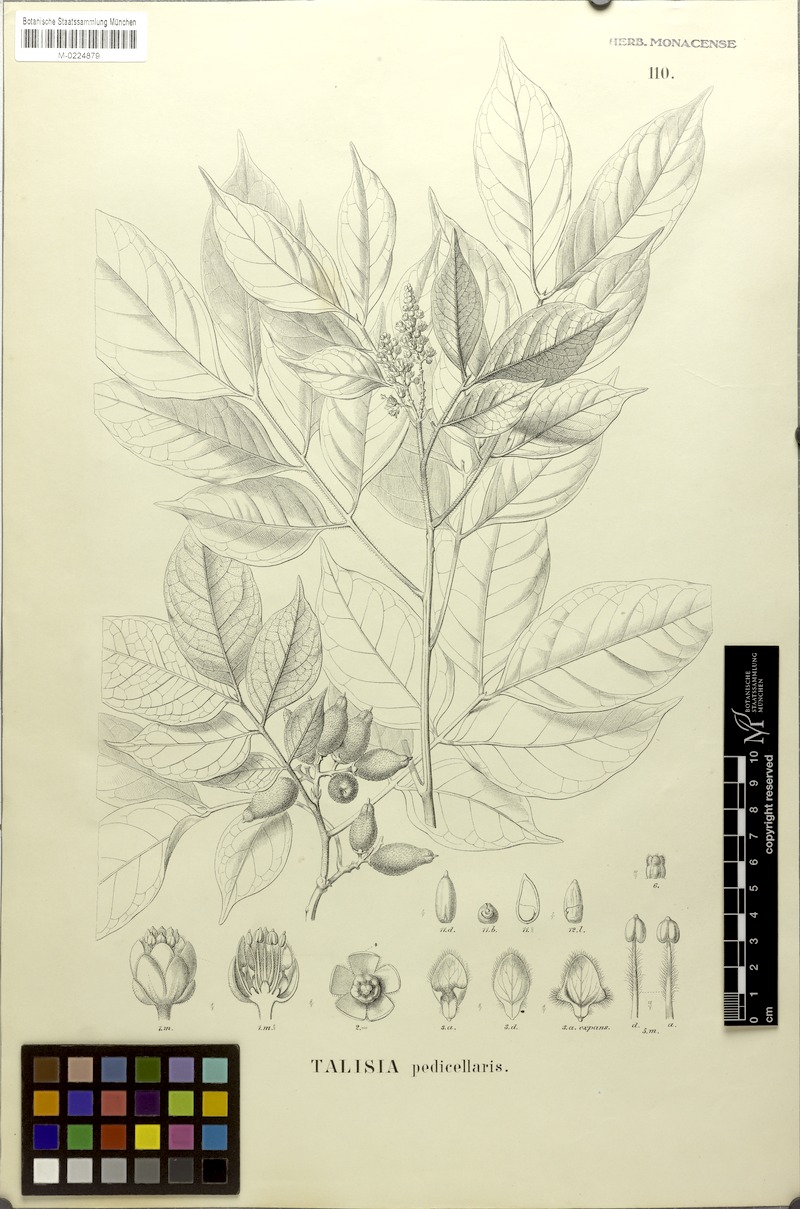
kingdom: Plantae
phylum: Tracheophyta
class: Magnoliopsida
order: Sapindales
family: Sapindaceae
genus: Melicoccus
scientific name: Melicoccus pedicellaris
